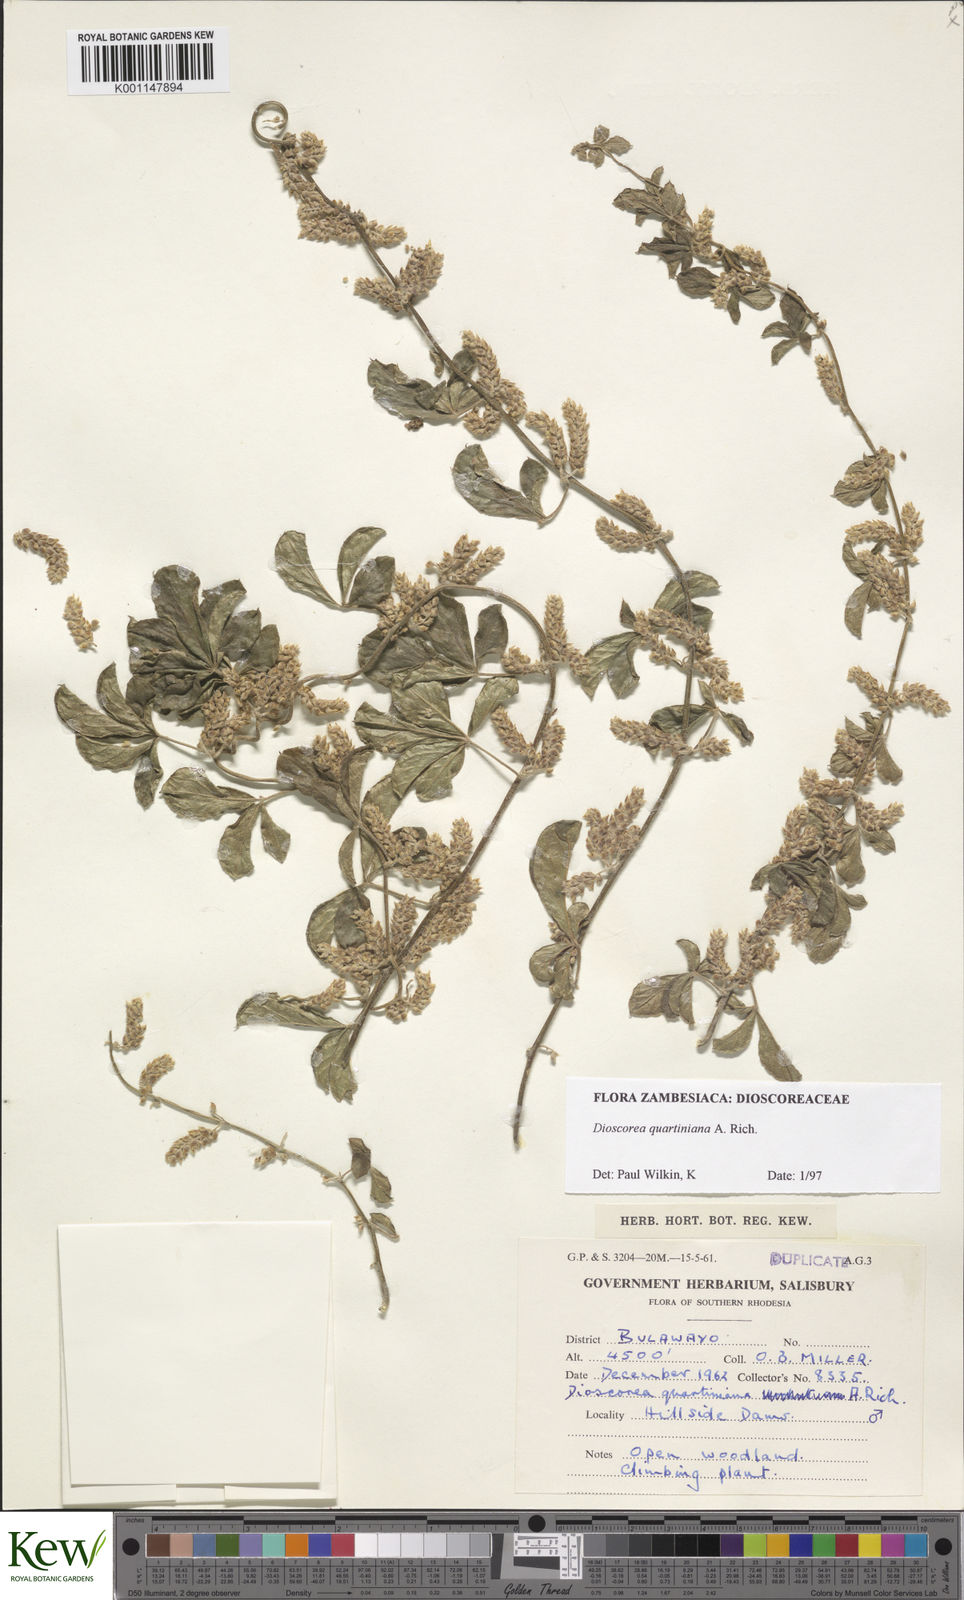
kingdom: Plantae
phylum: Tracheophyta
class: Liliopsida
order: Dioscoreales
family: Dioscoreaceae
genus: Dioscorea
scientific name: Dioscorea quartiniana
